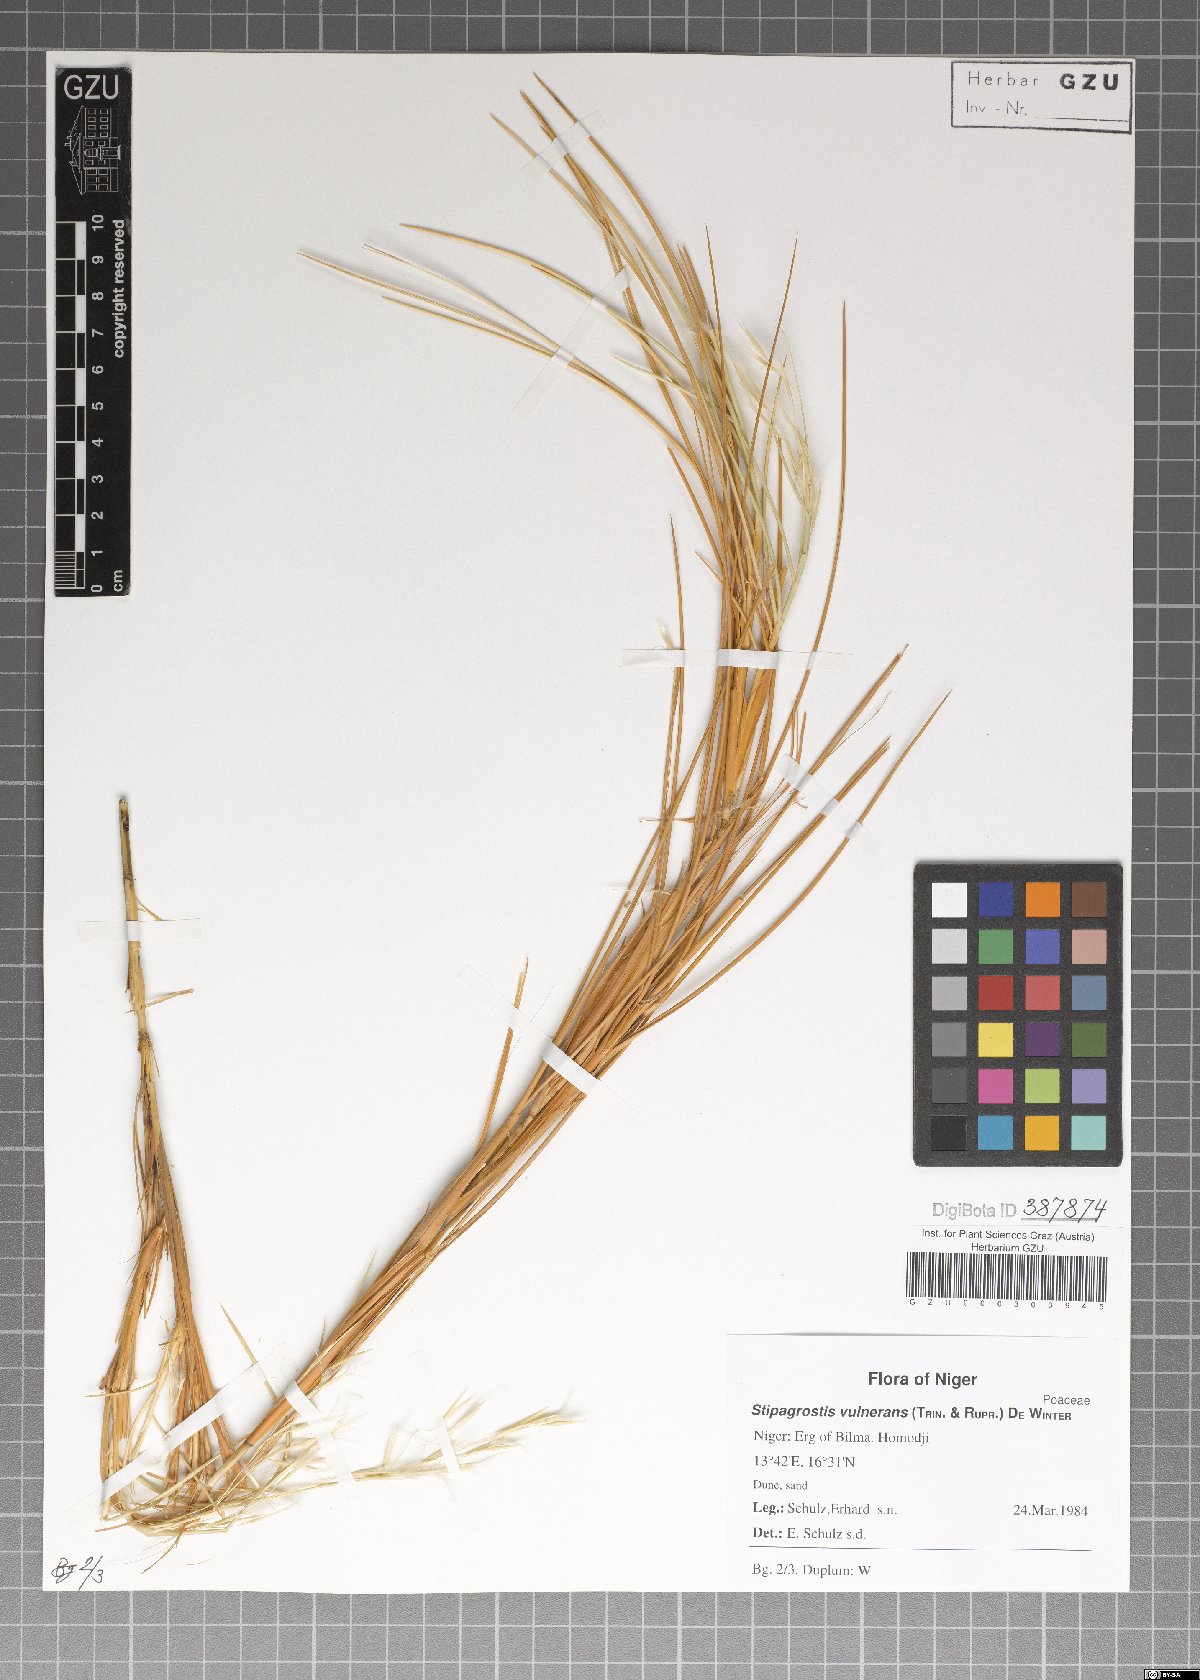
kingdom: Plantae
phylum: Tracheophyta
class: Liliopsida
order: Poales
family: Poaceae
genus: Stipagrostis
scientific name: Stipagrostis vulnerans
